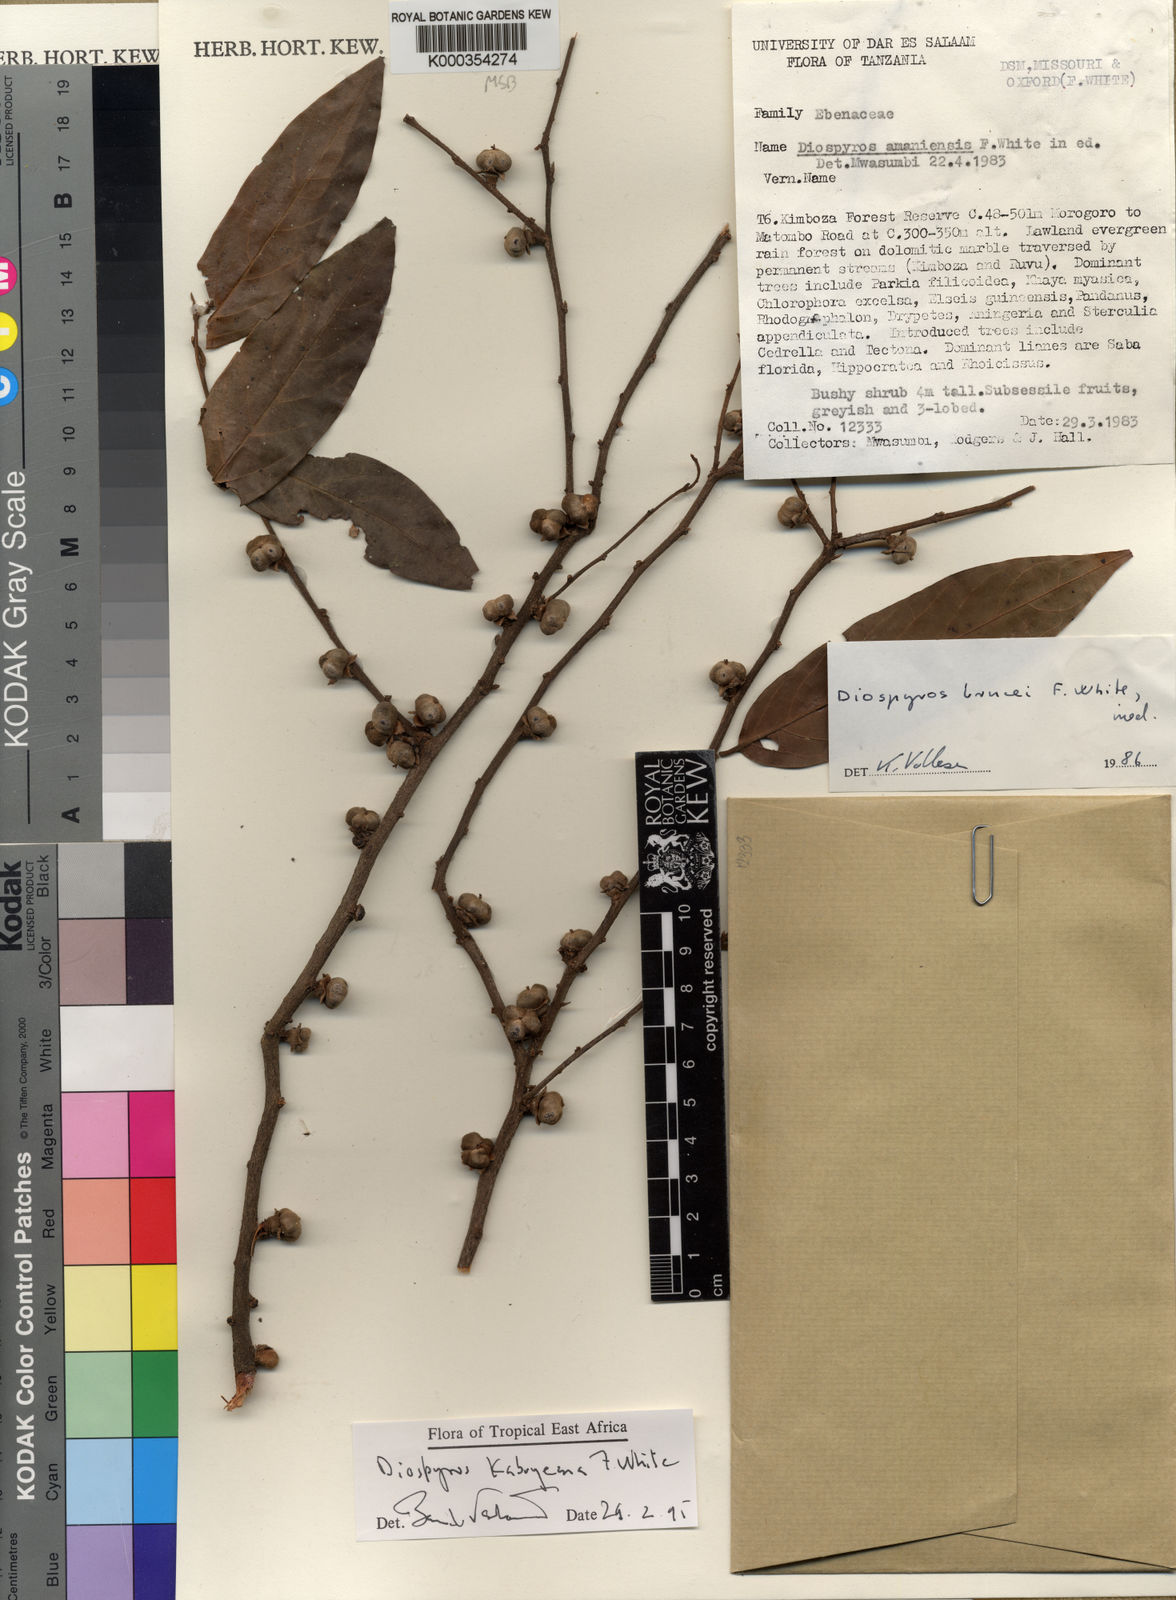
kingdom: Plantae
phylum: Tracheophyta
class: Magnoliopsida
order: Ericales
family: Ebenaceae
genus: Diospyros
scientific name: Diospyros kabuyeana
